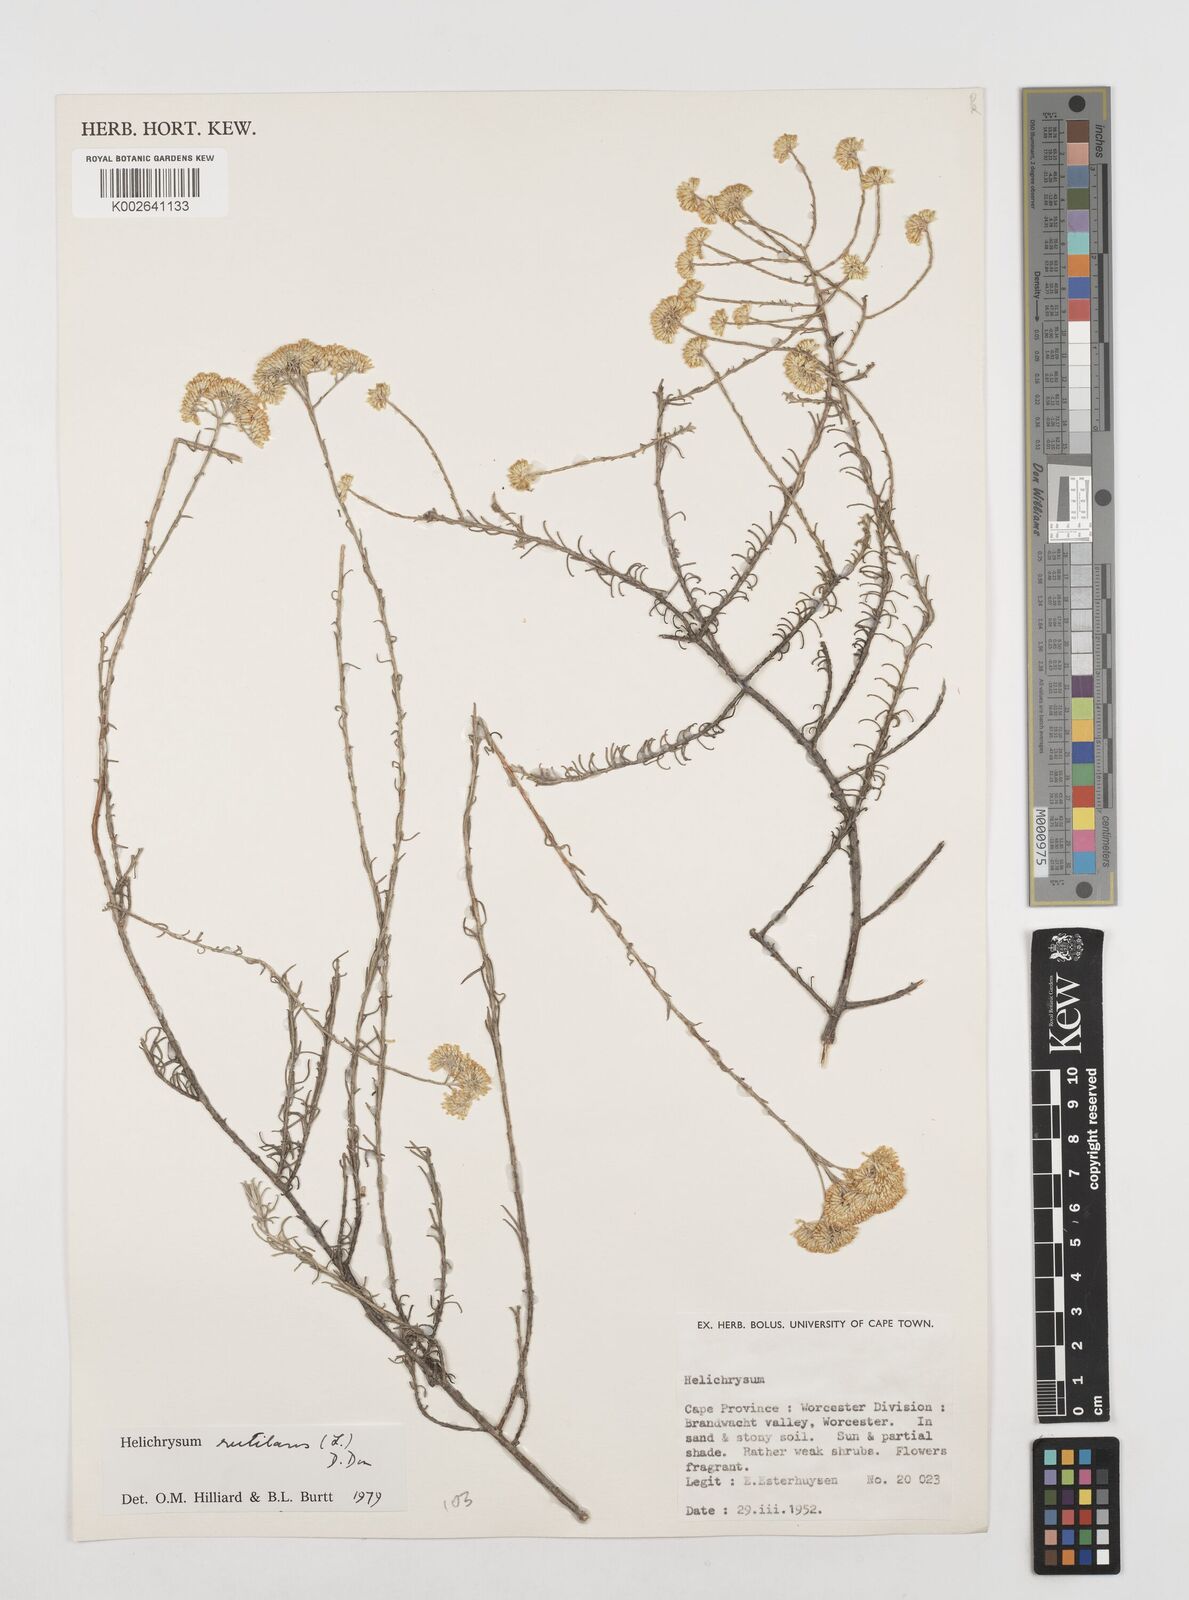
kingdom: Plantae
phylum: Tracheophyta
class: Magnoliopsida
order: Asterales
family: Asteraceae
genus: Helichrysum
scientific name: Helichrysum rutilans
